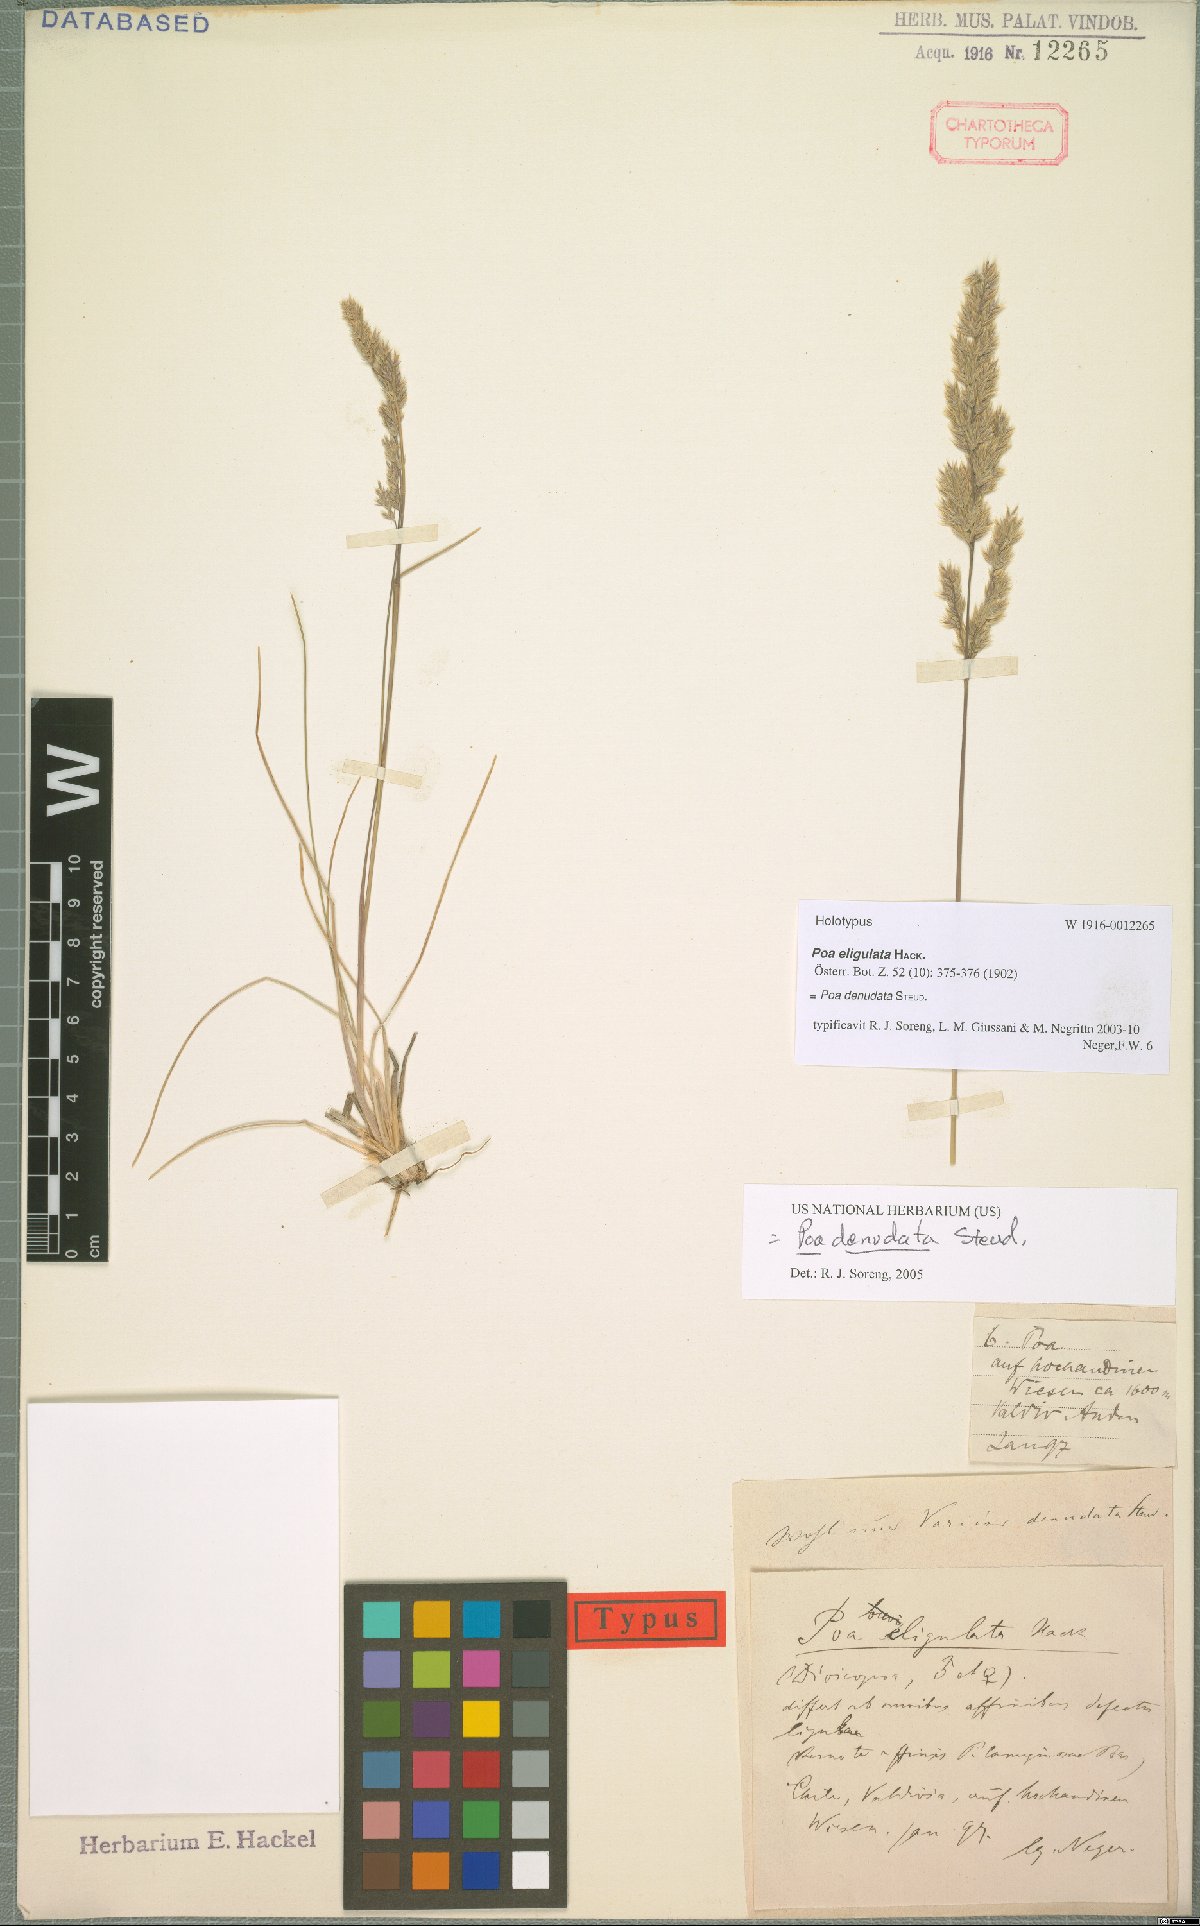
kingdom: Plantae
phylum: Tracheophyta
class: Liliopsida
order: Poales
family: Poaceae
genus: Poa
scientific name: Poa denudata
